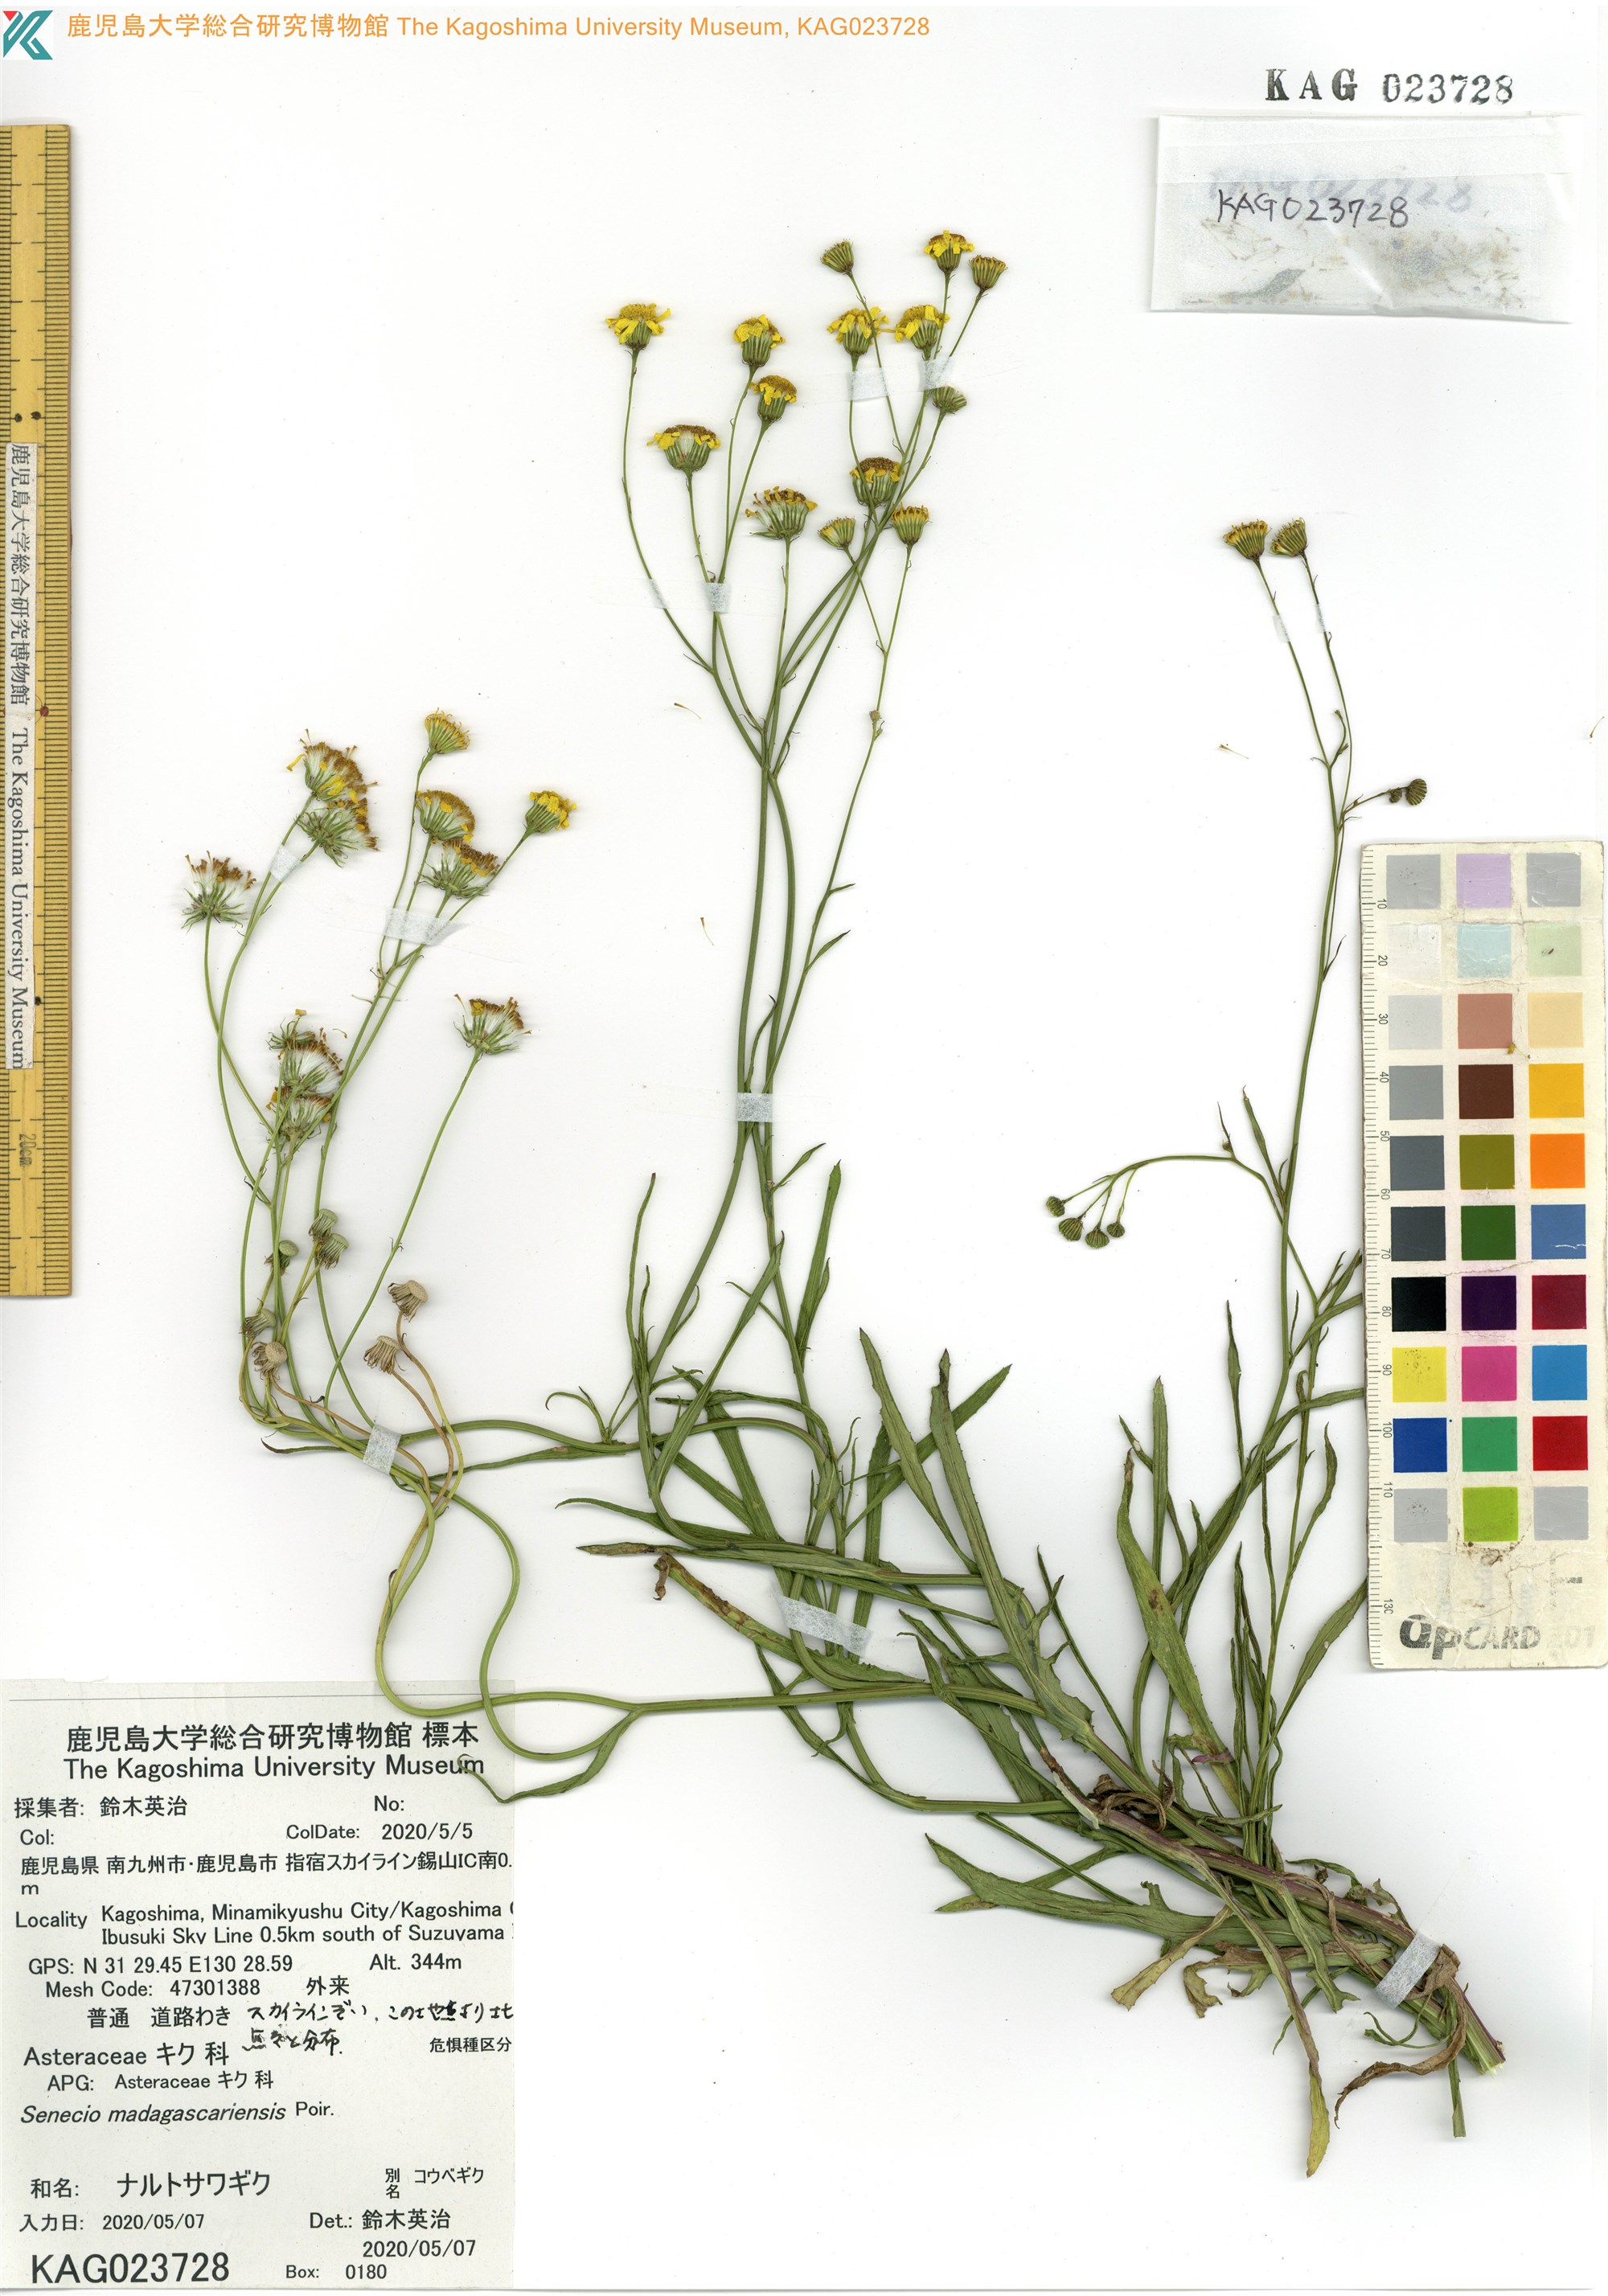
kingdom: Plantae
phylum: Tracheophyta
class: Magnoliopsida
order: Asterales
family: Asteraceae
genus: Senecio
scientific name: Senecio madagascariensis
